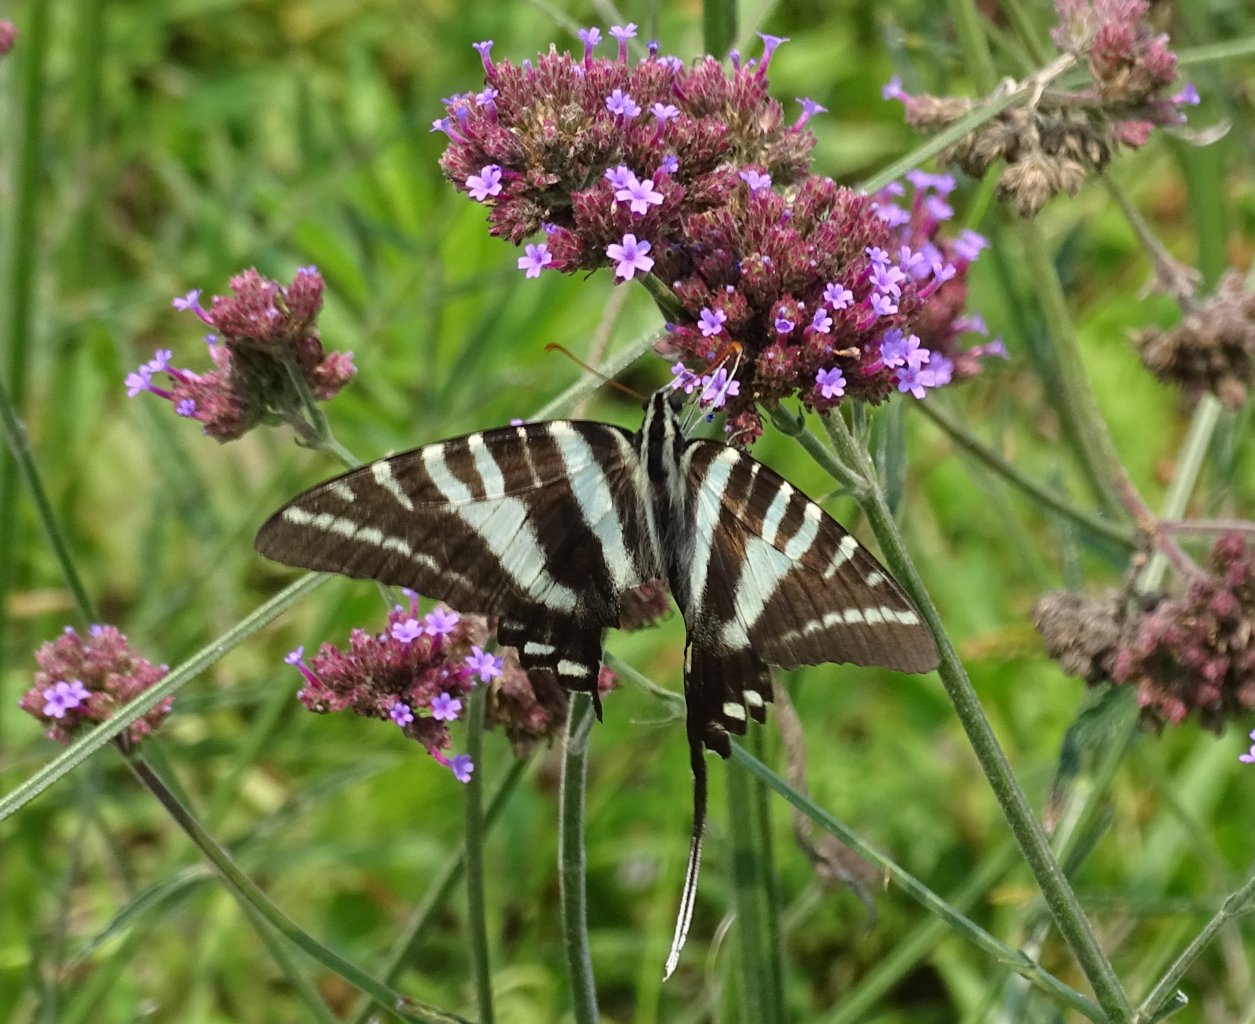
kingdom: Animalia
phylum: Arthropoda
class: Insecta
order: Lepidoptera
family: Papilionidae
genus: Protographium
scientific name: Protographium marcellus
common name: Zebra Swallowtail
